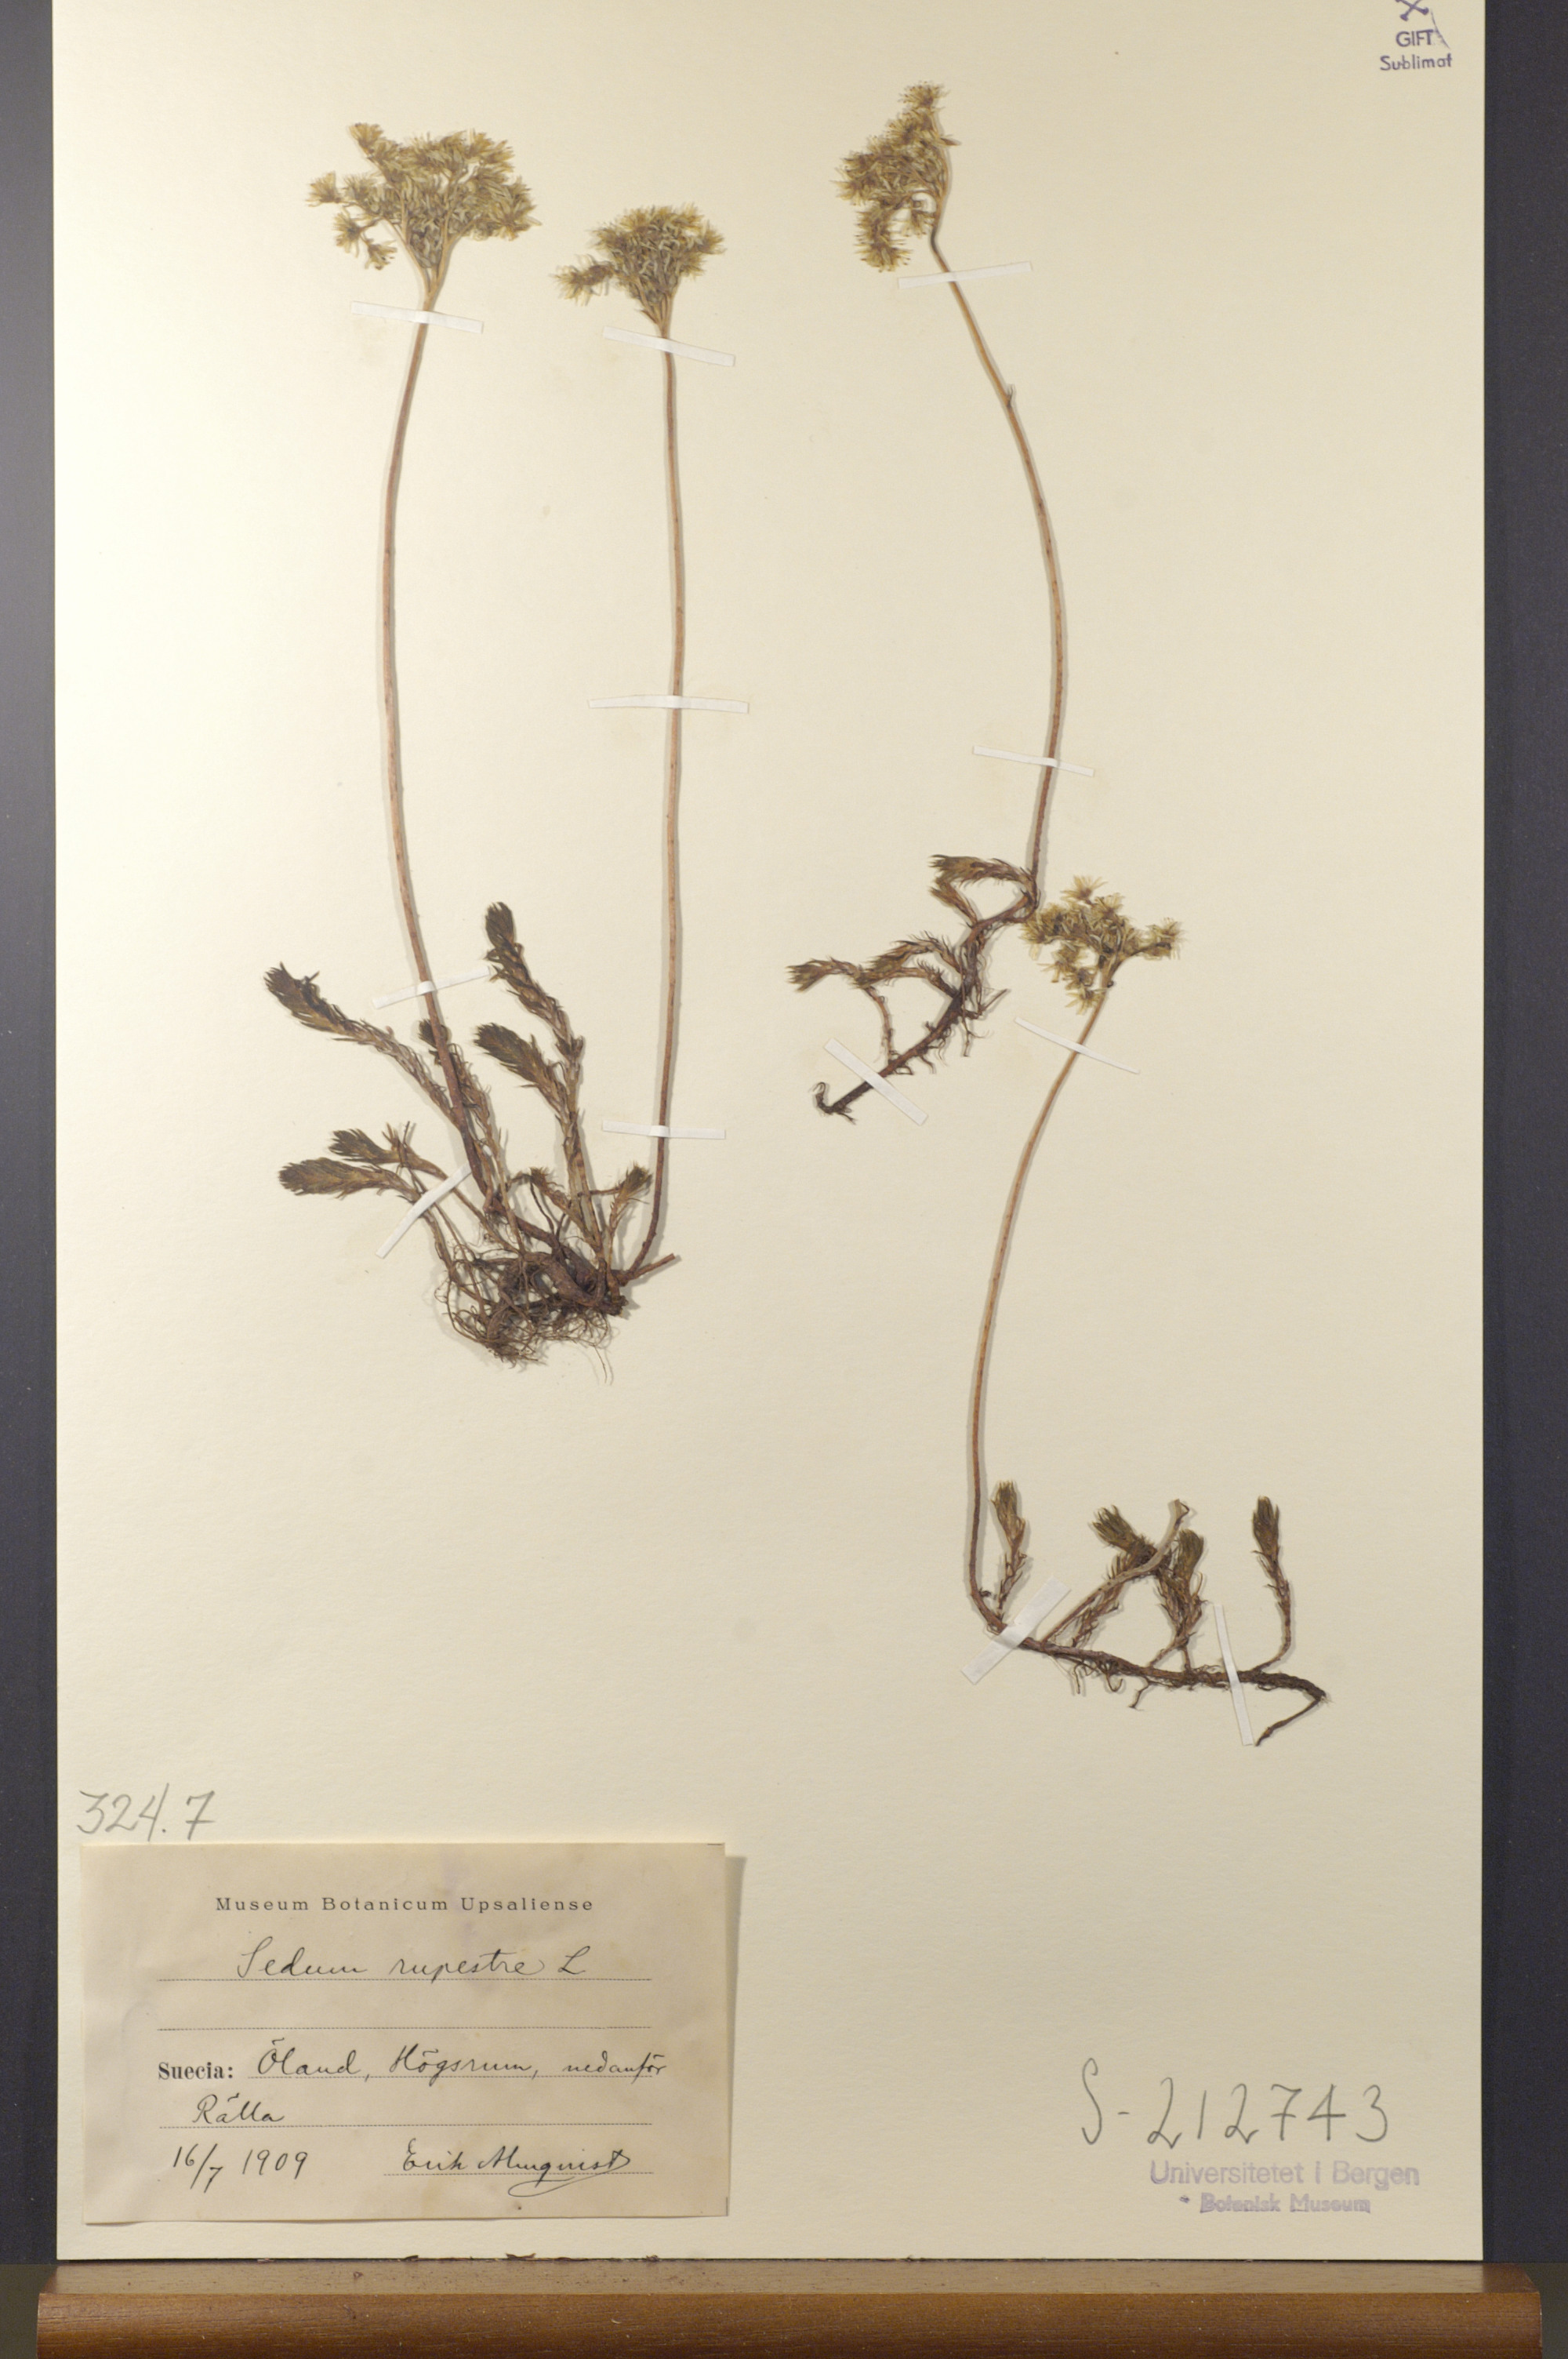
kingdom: Plantae
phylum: Tracheophyta
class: Magnoliopsida
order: Saxifragales
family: Crassulaceae
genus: Petrosedum
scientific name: Petrosedum rupestre
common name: Jenny's stonecrop
